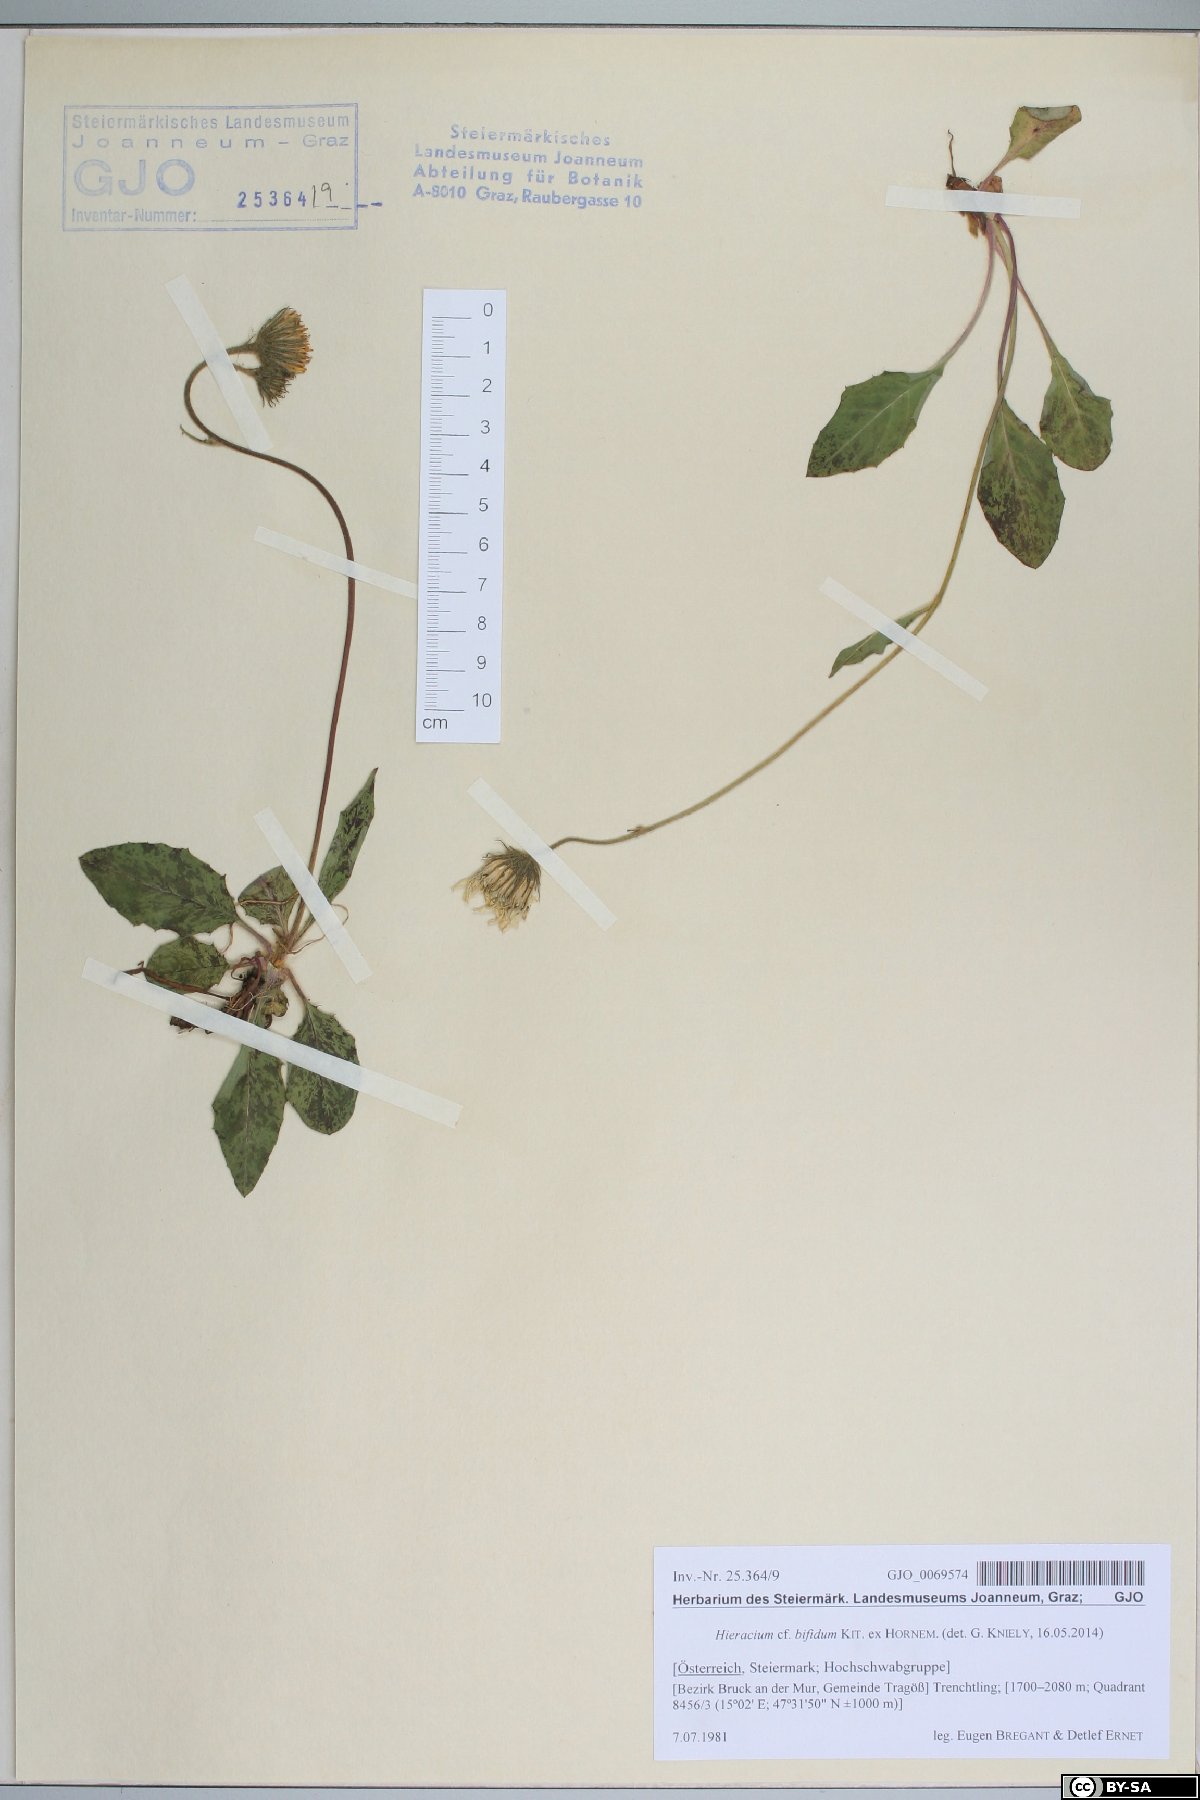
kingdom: Plantae
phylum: Tracheophyta
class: Magnoliopsida
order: Asterales
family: Asteraceae
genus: Hieracium
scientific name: Hieracium bifidum
